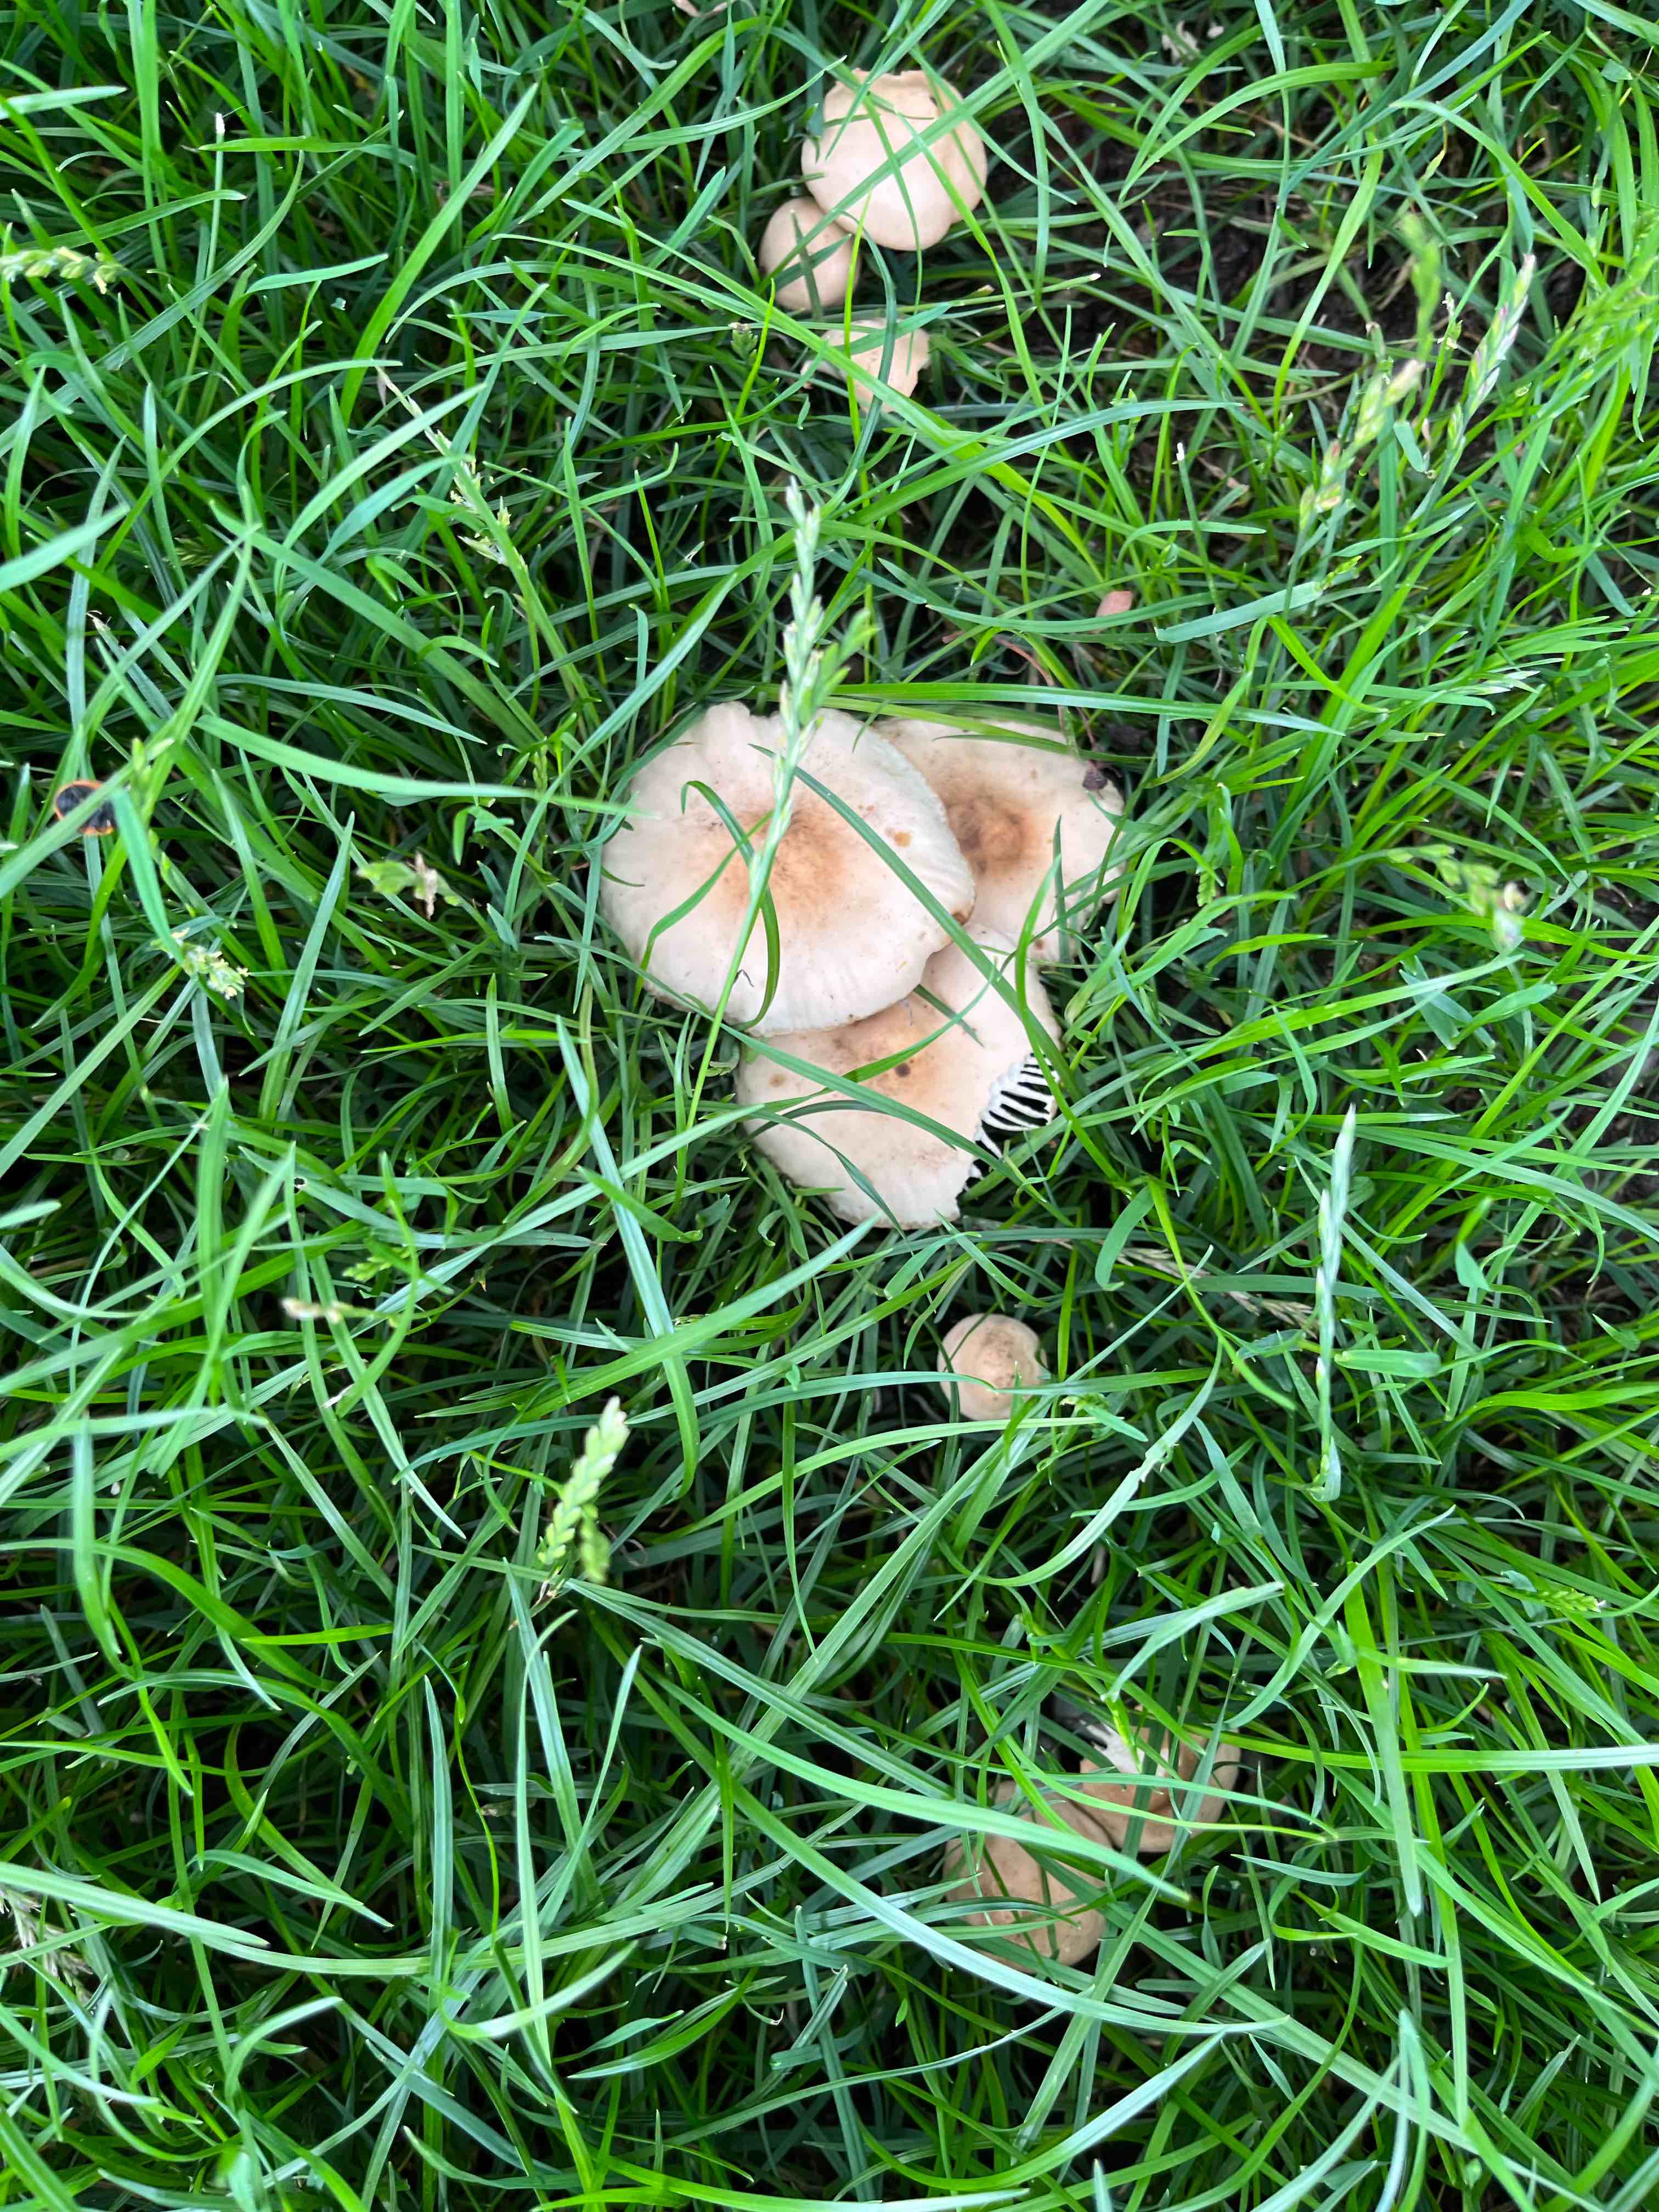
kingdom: Fungi
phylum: Basidiomycota
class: Agaricomycetes
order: Agaricales
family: Marasmiaceae
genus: Marasmius
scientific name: Marasmius oreades
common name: elledans-bruskhat
